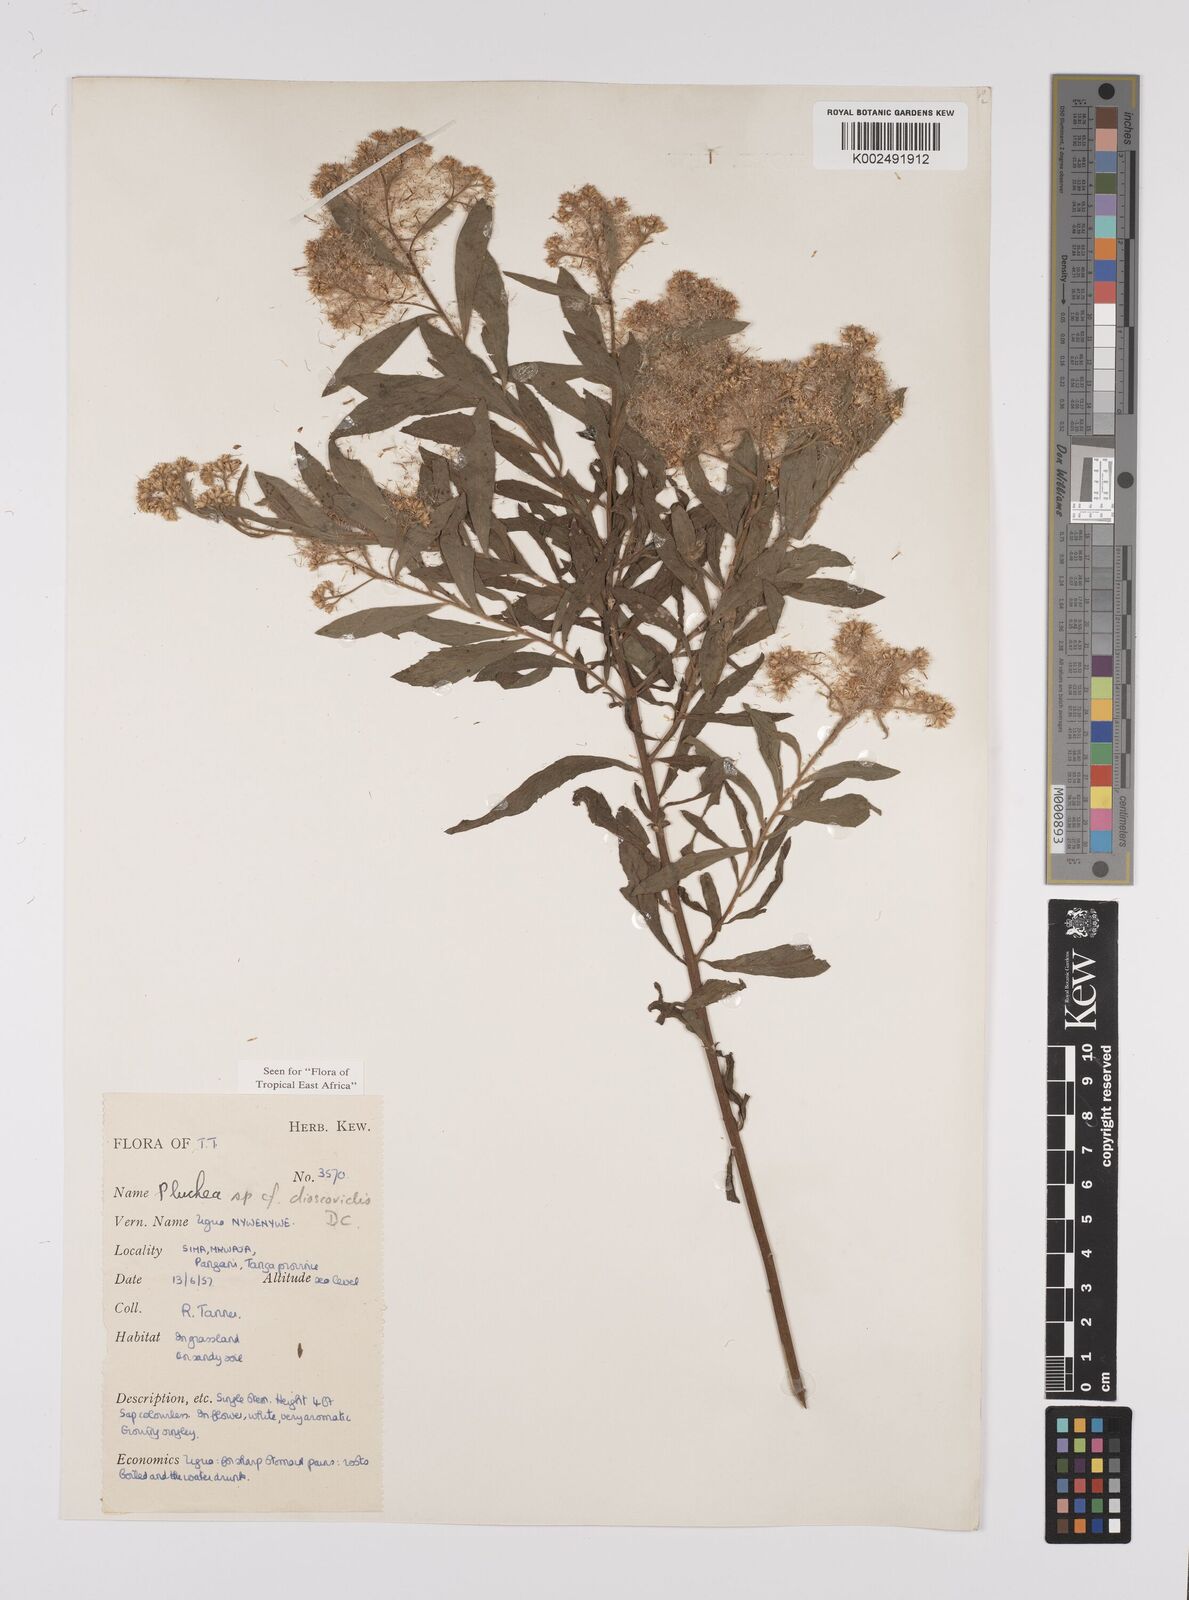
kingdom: Plantae
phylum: Tracheophyta
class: Magnoliopsida
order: Asterales
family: Asteraceae
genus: Pluchea
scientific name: Pluchea dioscoridis
